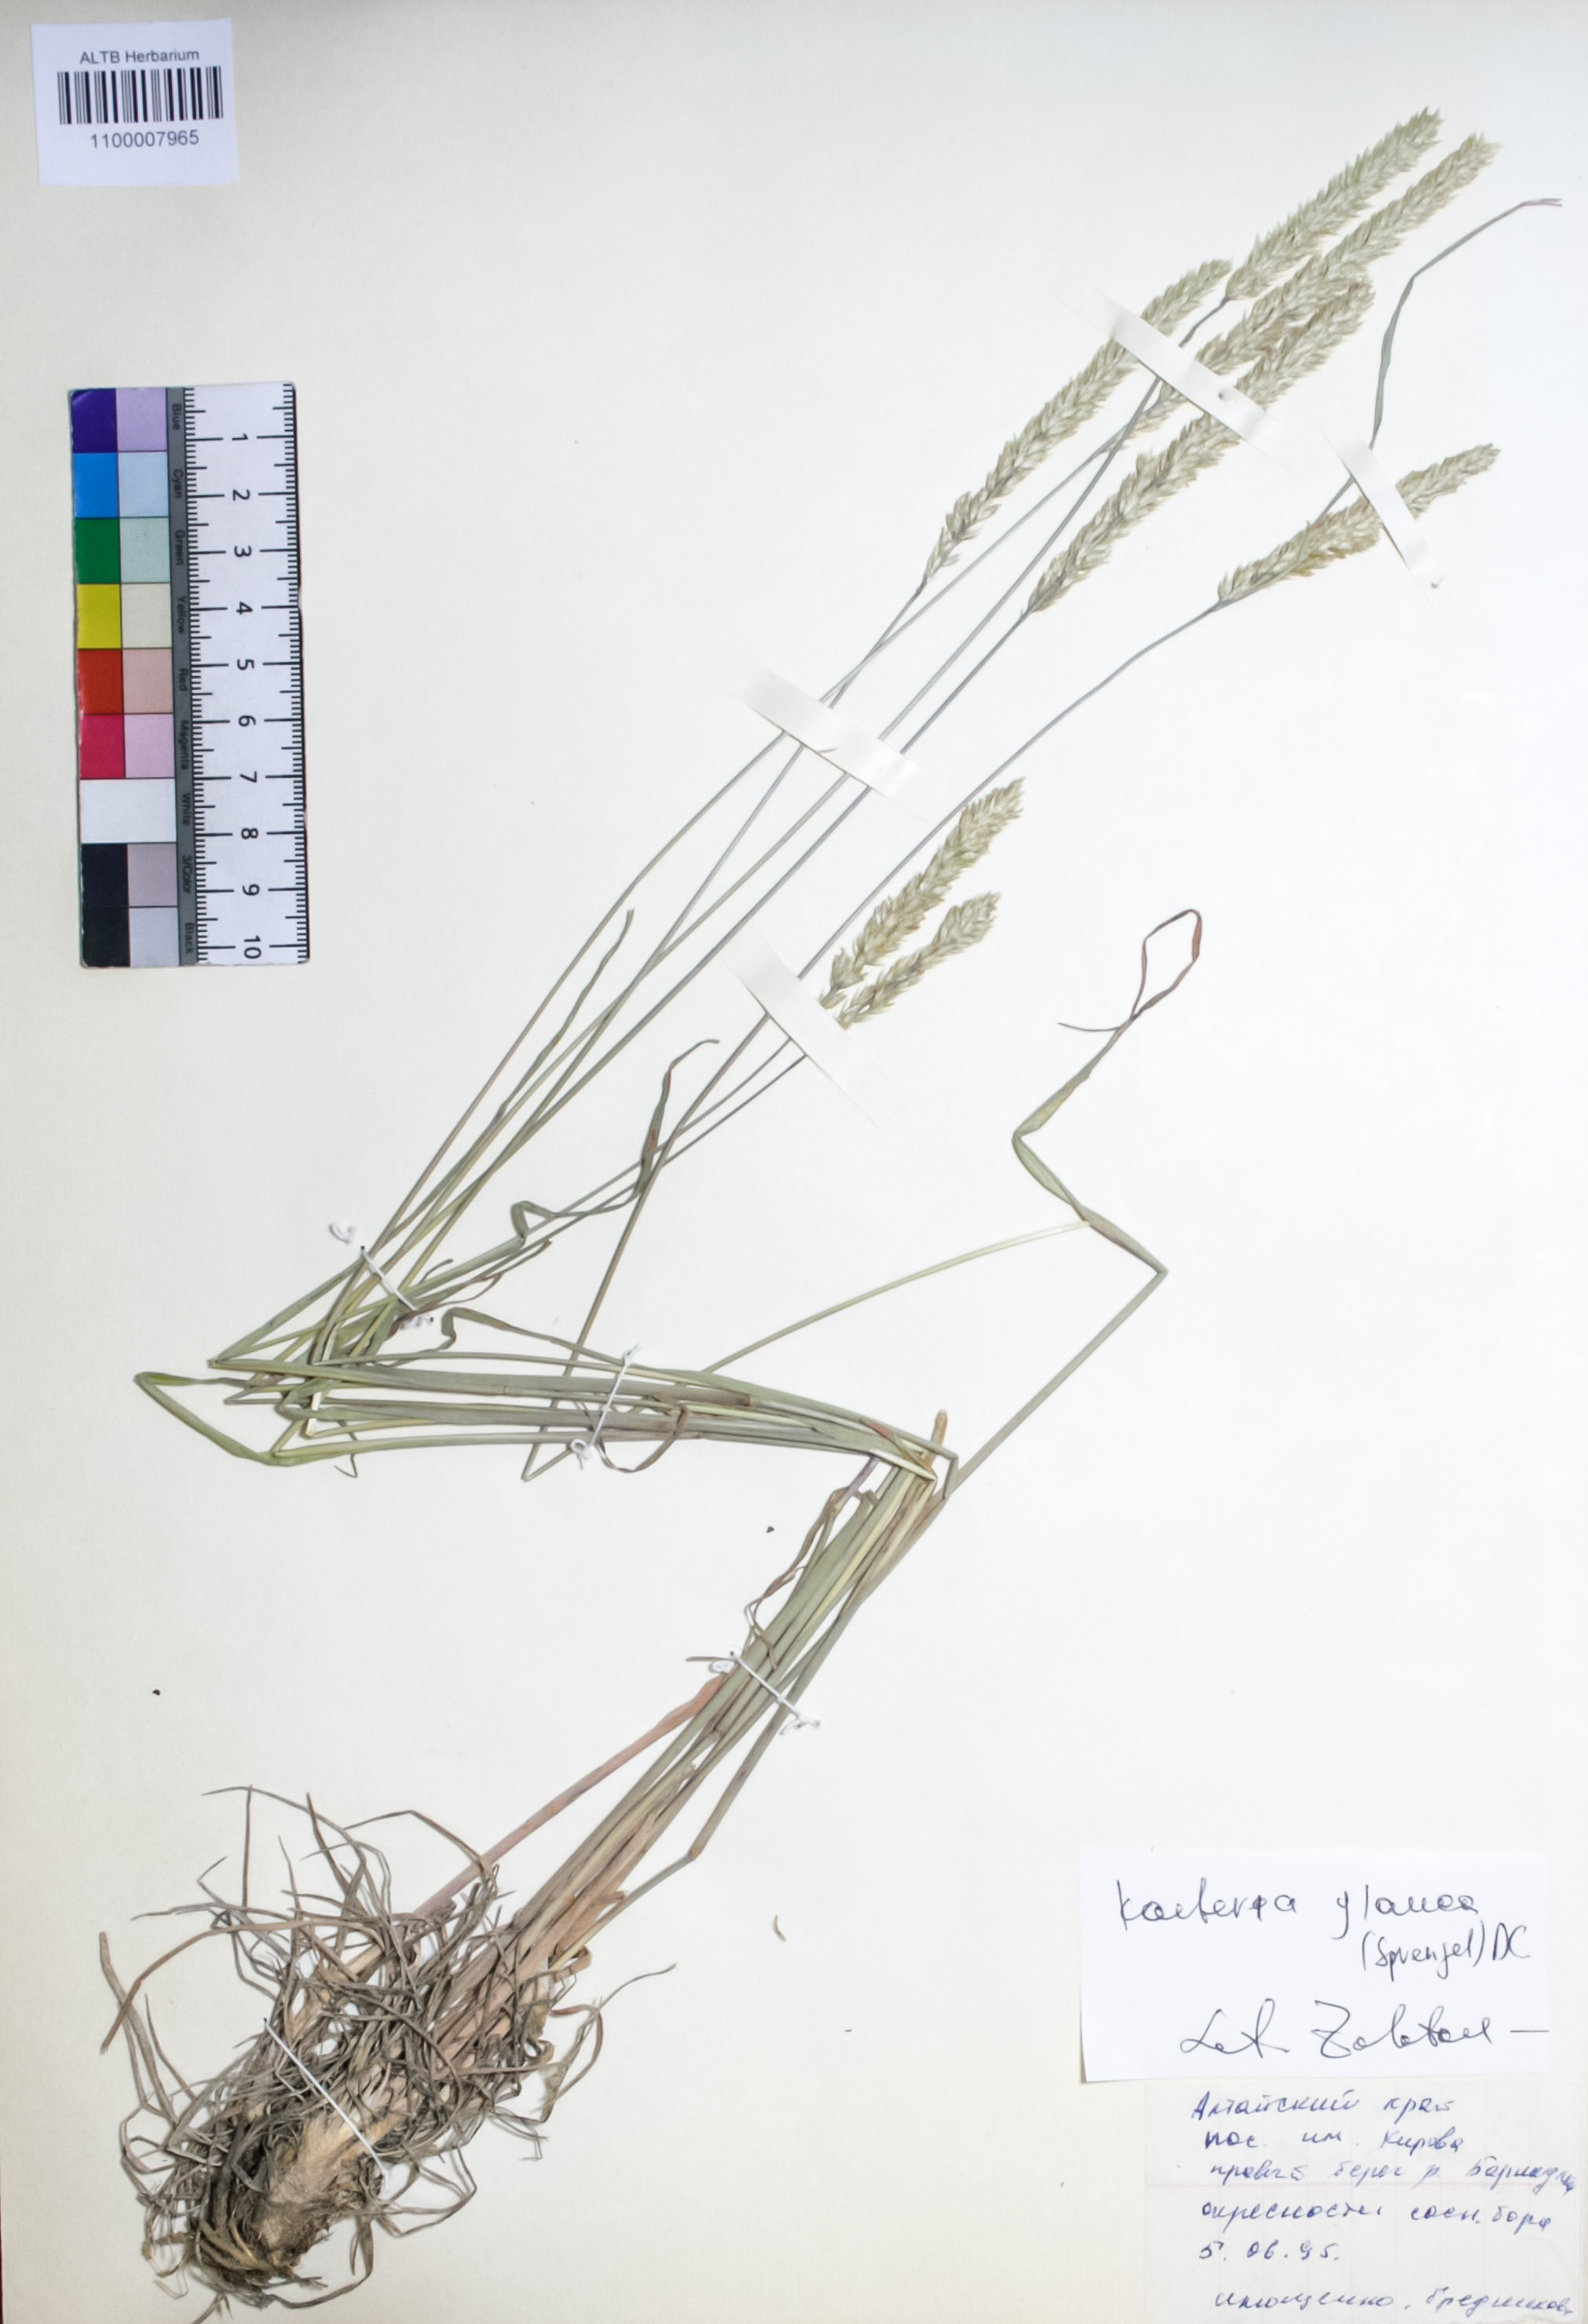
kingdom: Plantae
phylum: Tracheophyta
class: Liliopsida
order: Poales
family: Poaceae
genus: Koeleria
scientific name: Koeleria glauca
